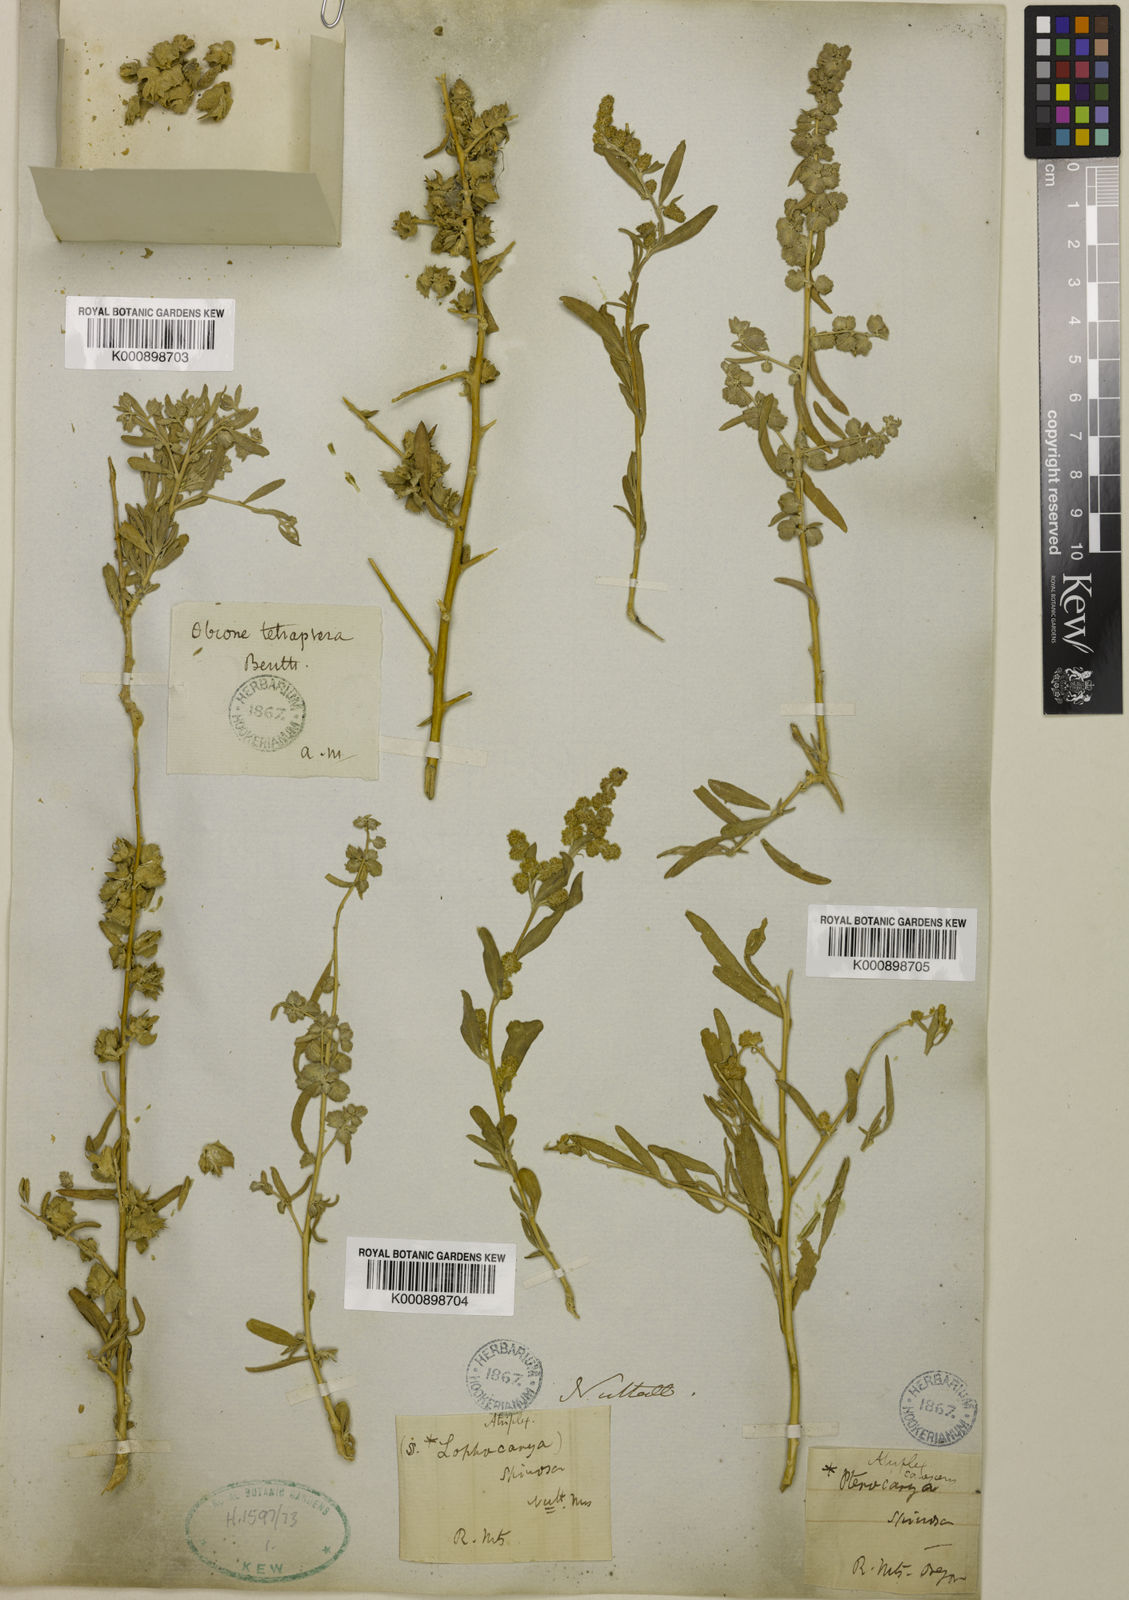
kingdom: Plantae
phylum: Tracheophyta
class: Magnoliopsida
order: Caryophyllales
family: Amaranthaceae
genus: Atriplex
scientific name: Atriplex canescens
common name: Four-wing saltbush
